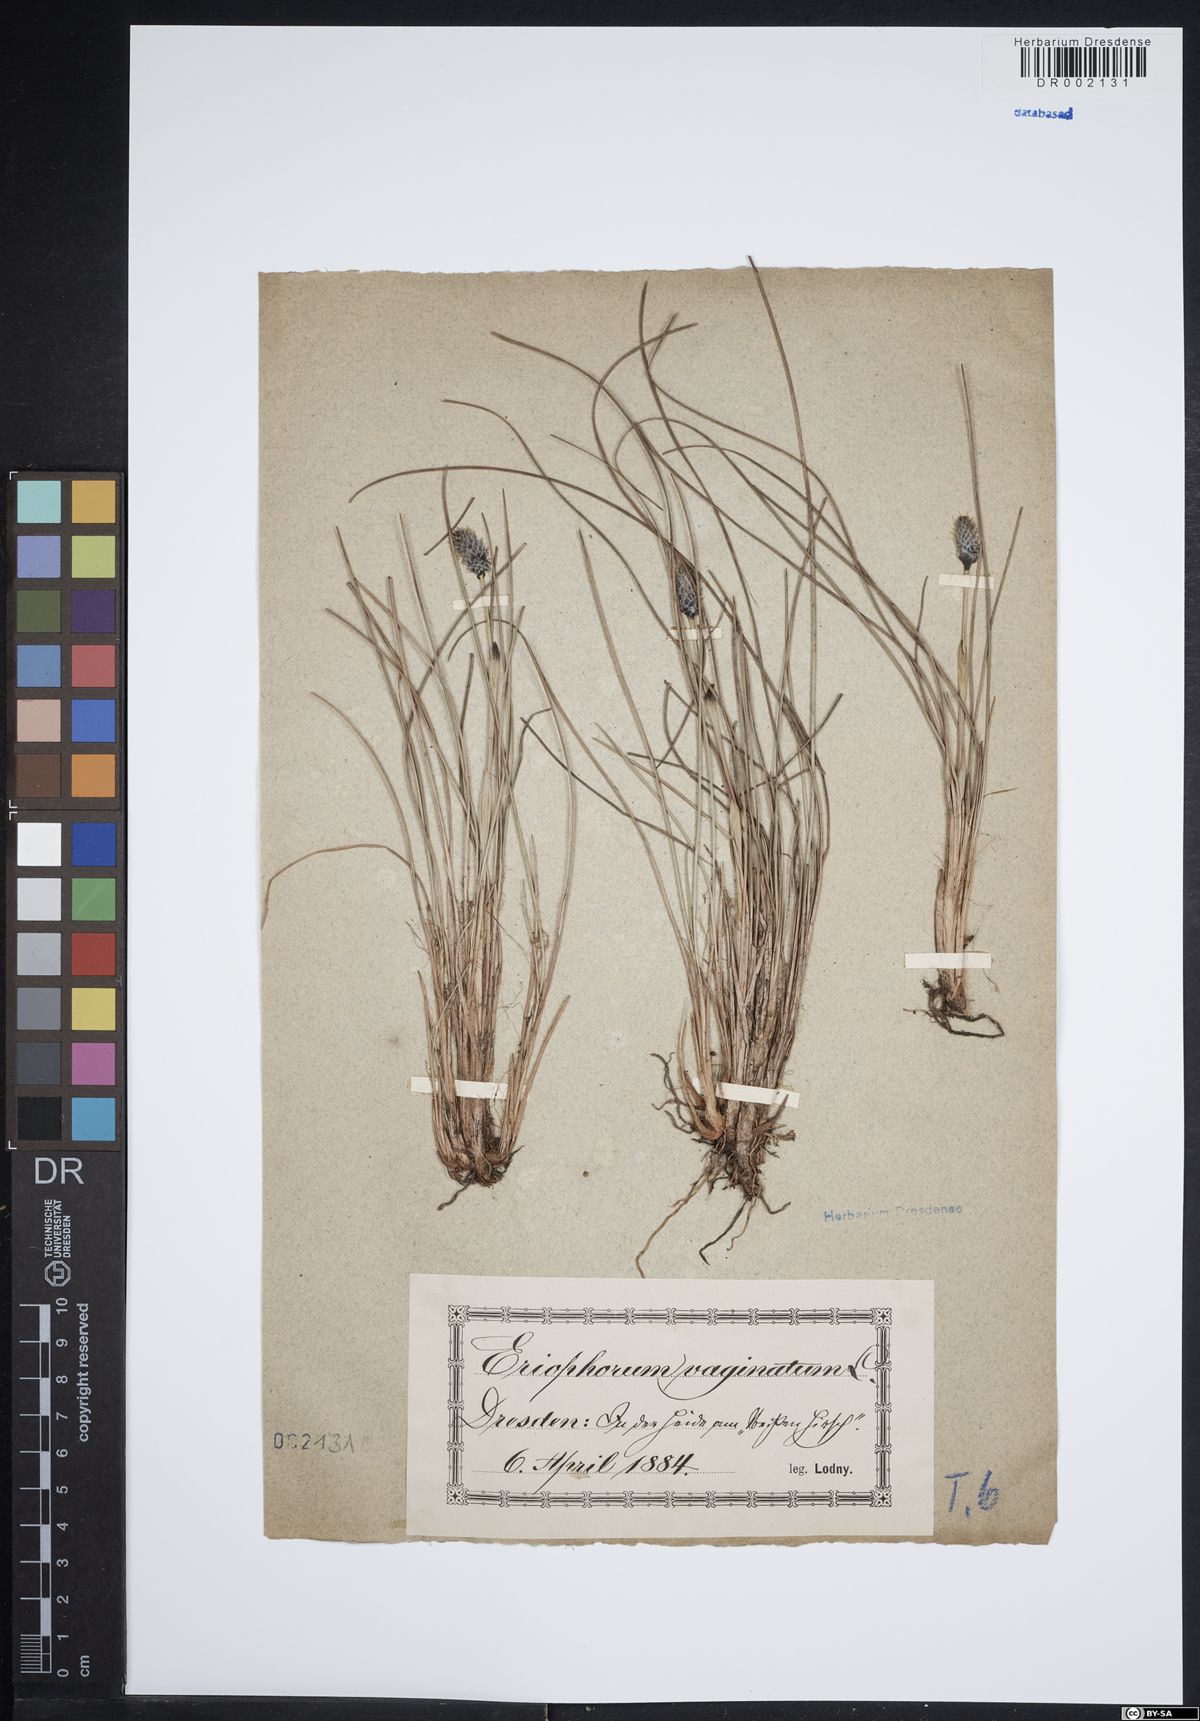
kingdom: Plantae
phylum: Tracheophyta
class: Liliopsida
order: Poales
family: Cyperaceae
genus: Eriophorum
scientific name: Eriophorum vaginatum
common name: Hare's-tail cottongrass
